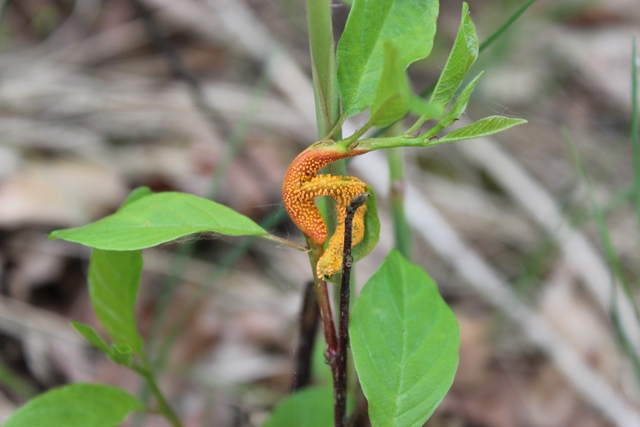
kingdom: Fungi
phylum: Basidiomycota
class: Pucciniomycetes
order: Pucciniales
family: Pucciniaceae
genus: Puccinia
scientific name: Puccinia coronata
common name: Crown rust
